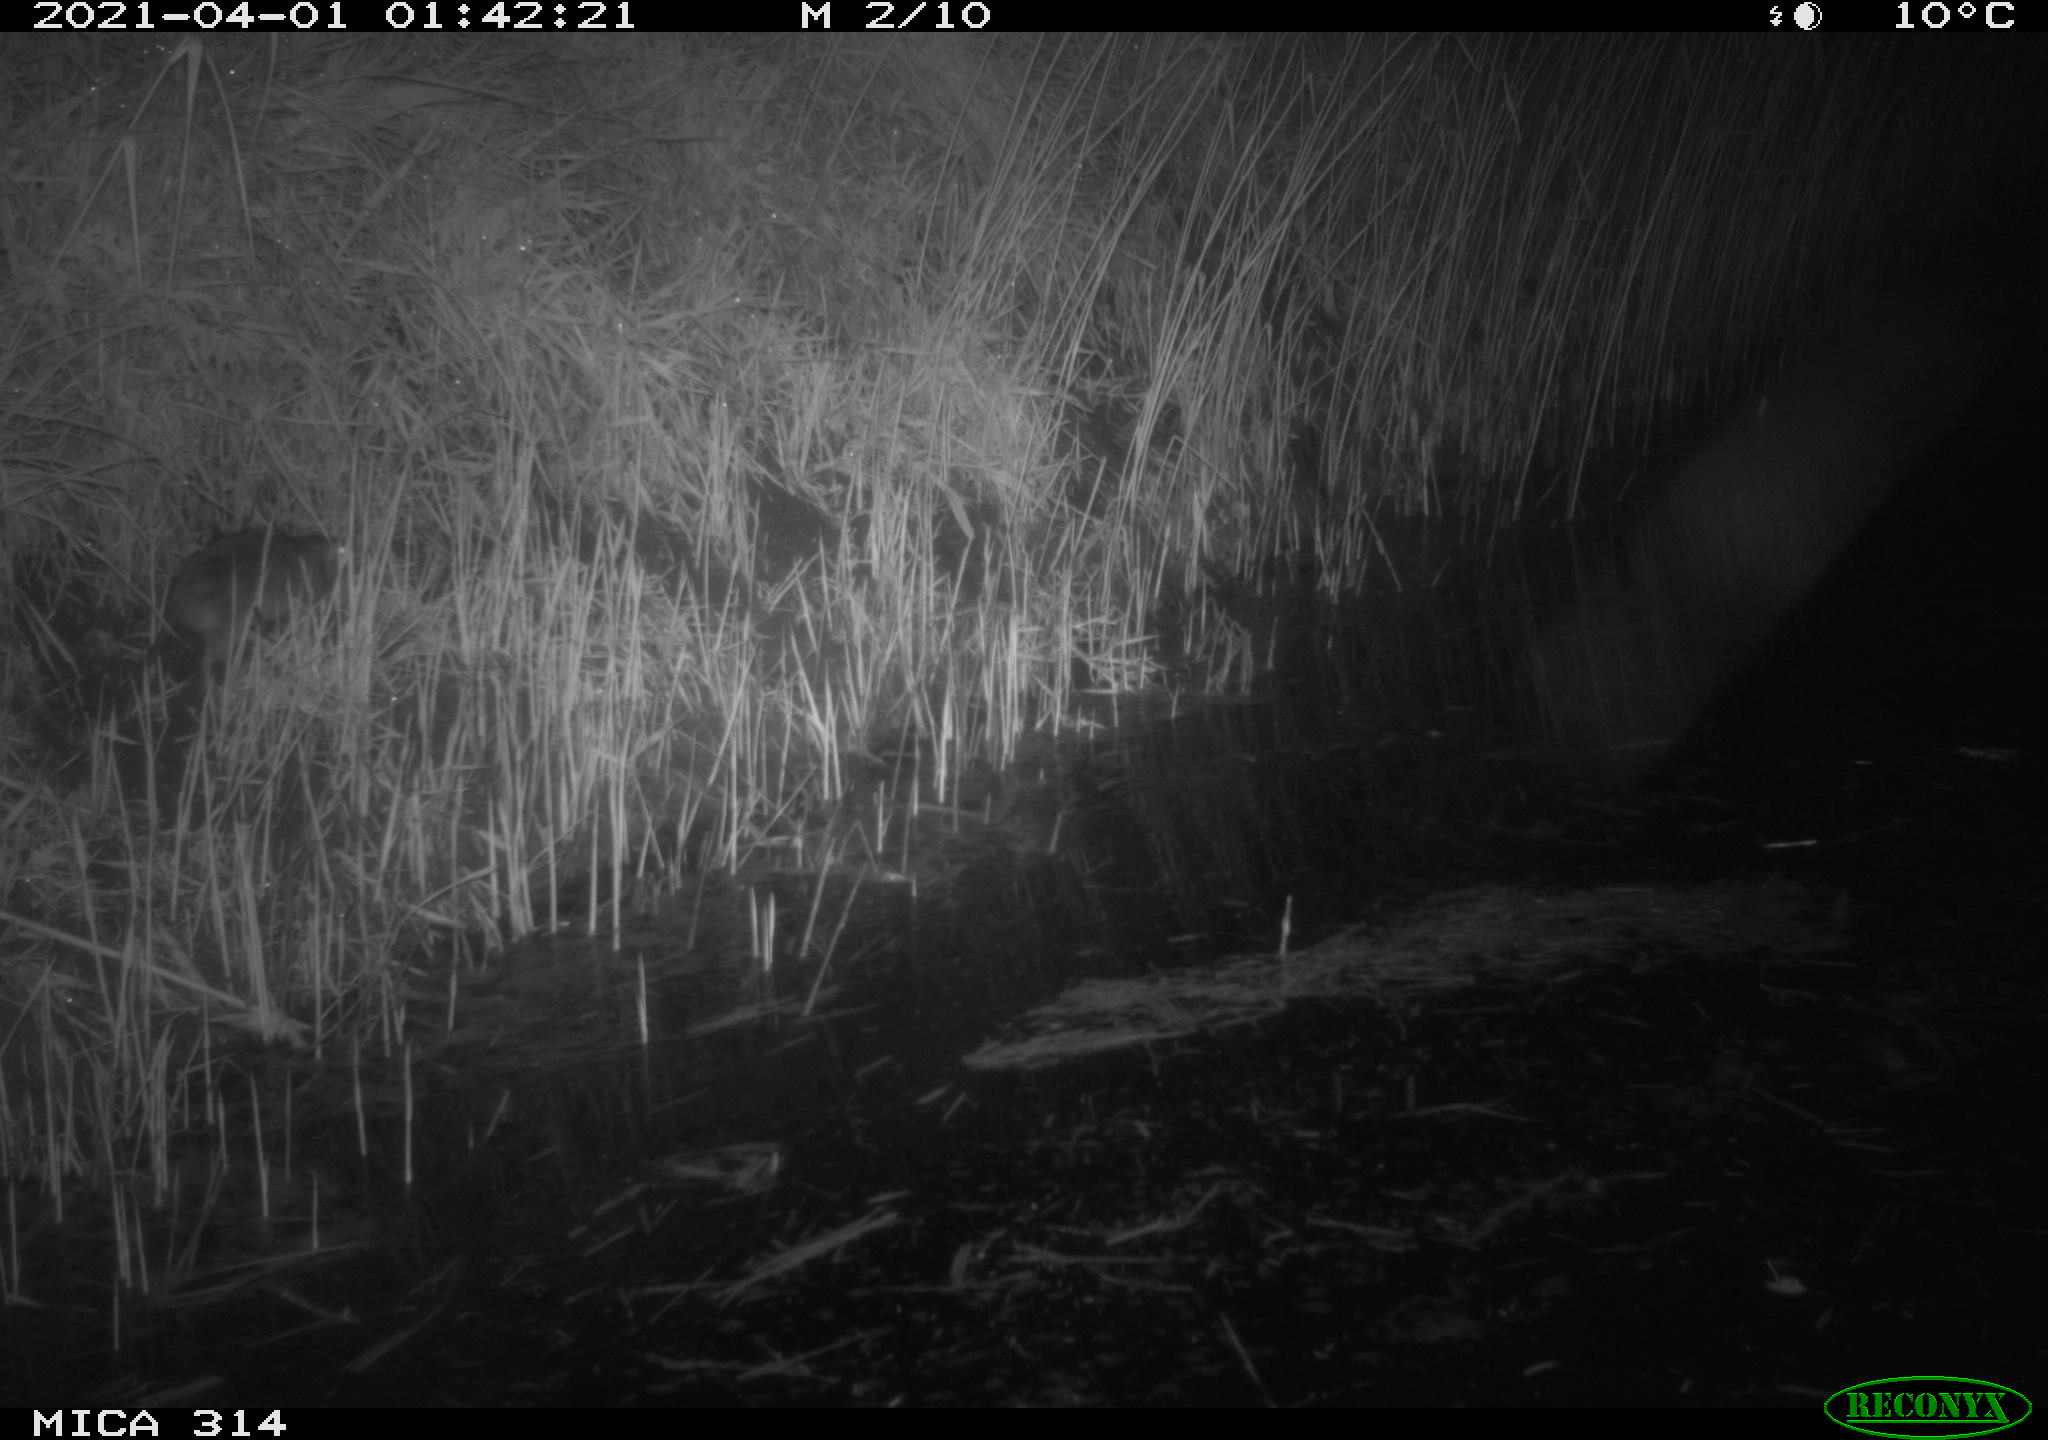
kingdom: Animalia
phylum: Chordata
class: Mammalia
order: Rodentia
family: Muridae
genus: Rattus
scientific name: Rattus norvegicus
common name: Brown rat
